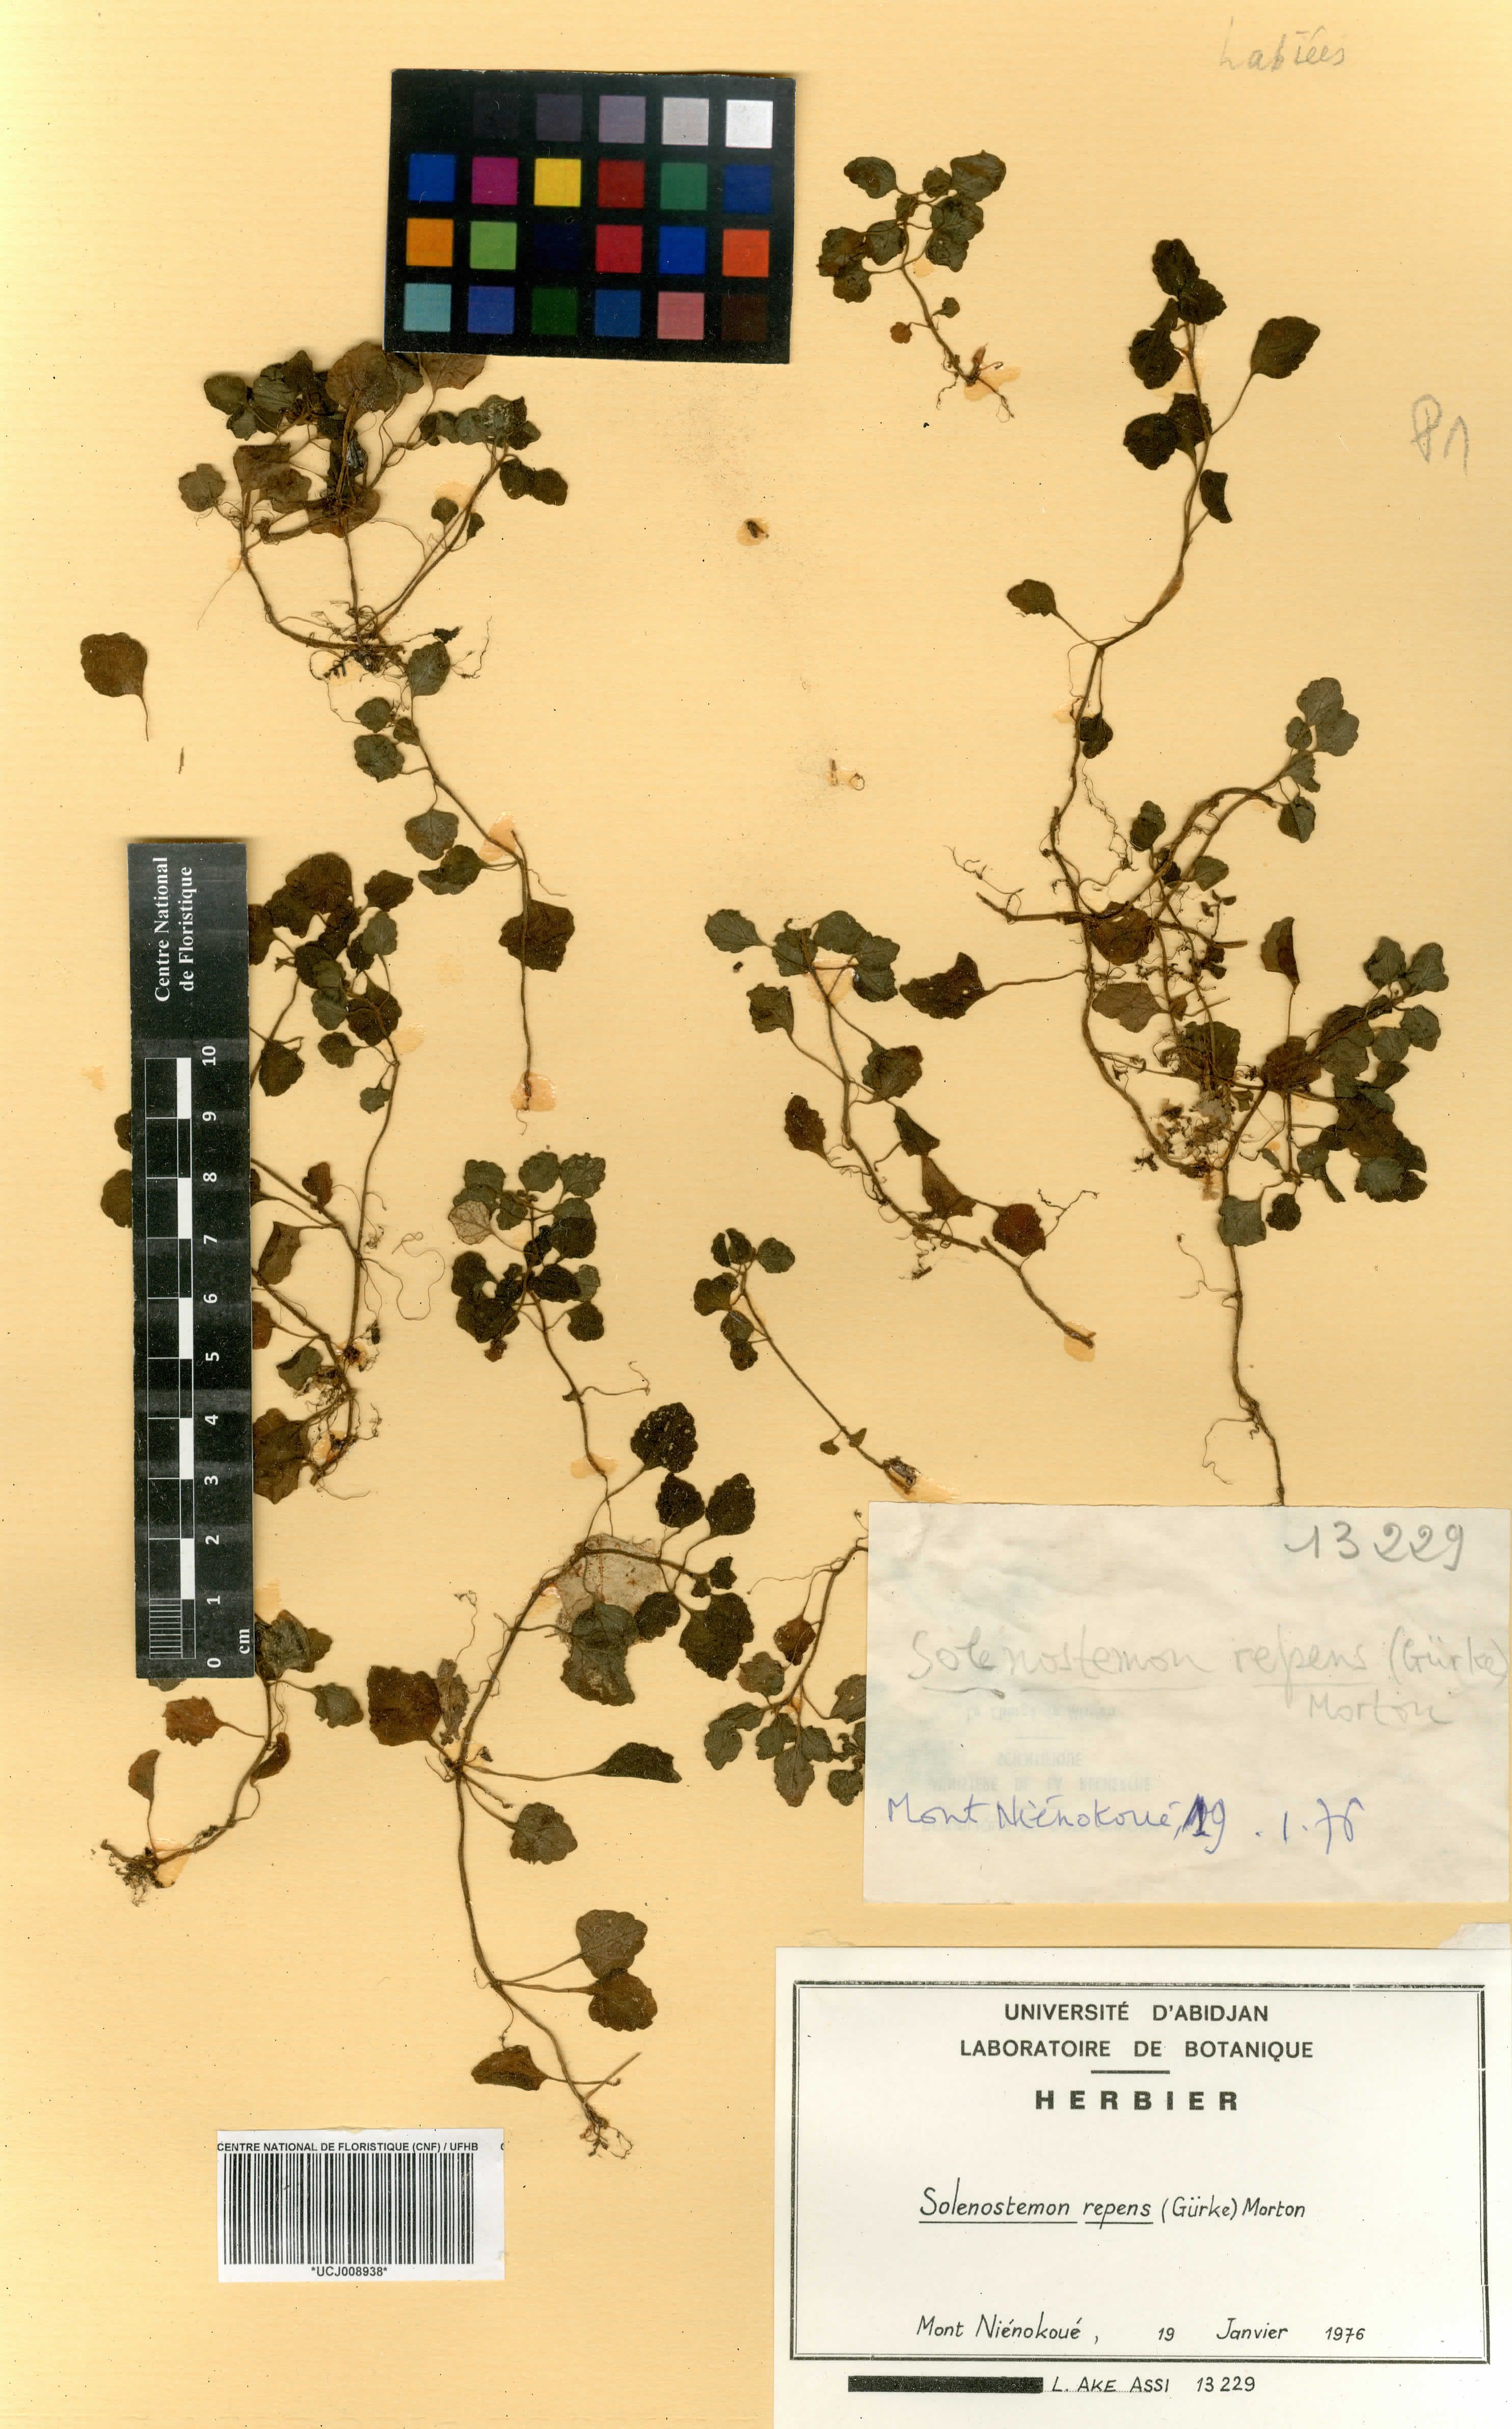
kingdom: Plantae
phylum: Tracheophyta
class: Magnoliopsida
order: Lamiales
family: Lamiaceae
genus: Coleus
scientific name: Coleus repens
